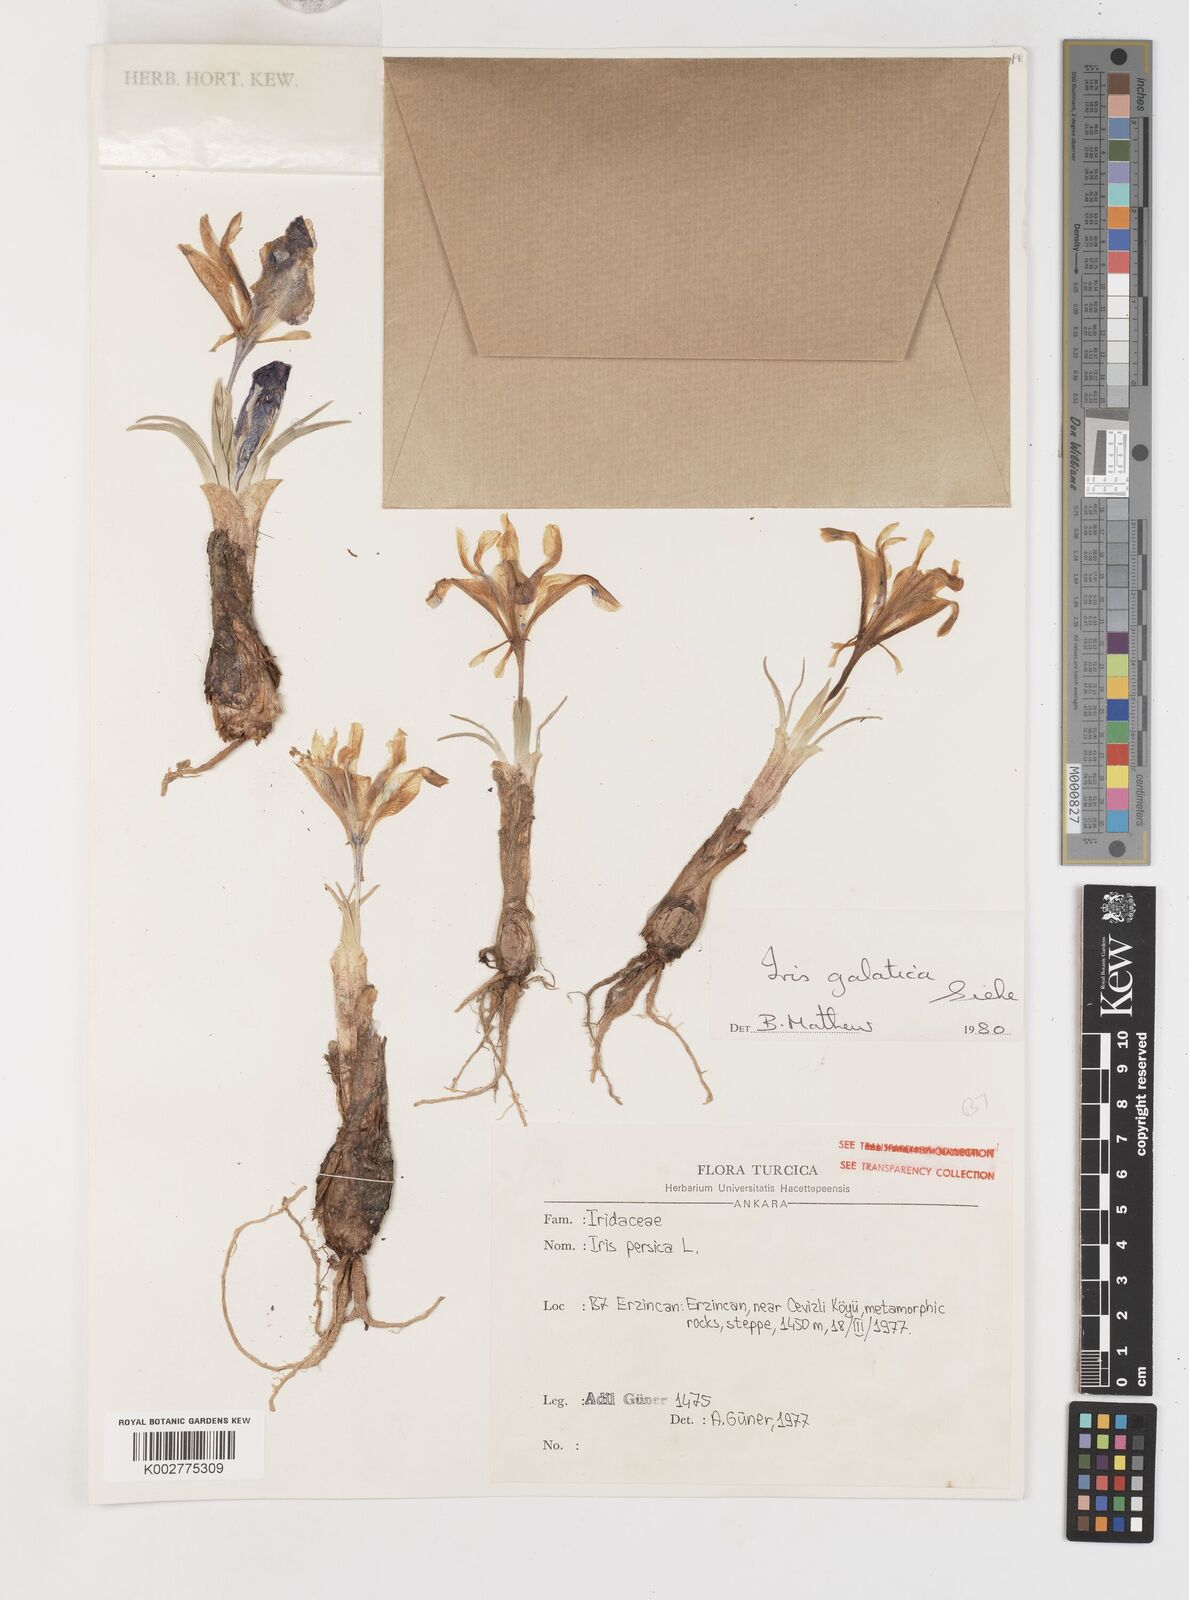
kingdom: Plantae
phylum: Tracheophyta
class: Liliopsida
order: Asparagales
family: Iridaceae
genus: Iris
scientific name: Iris
